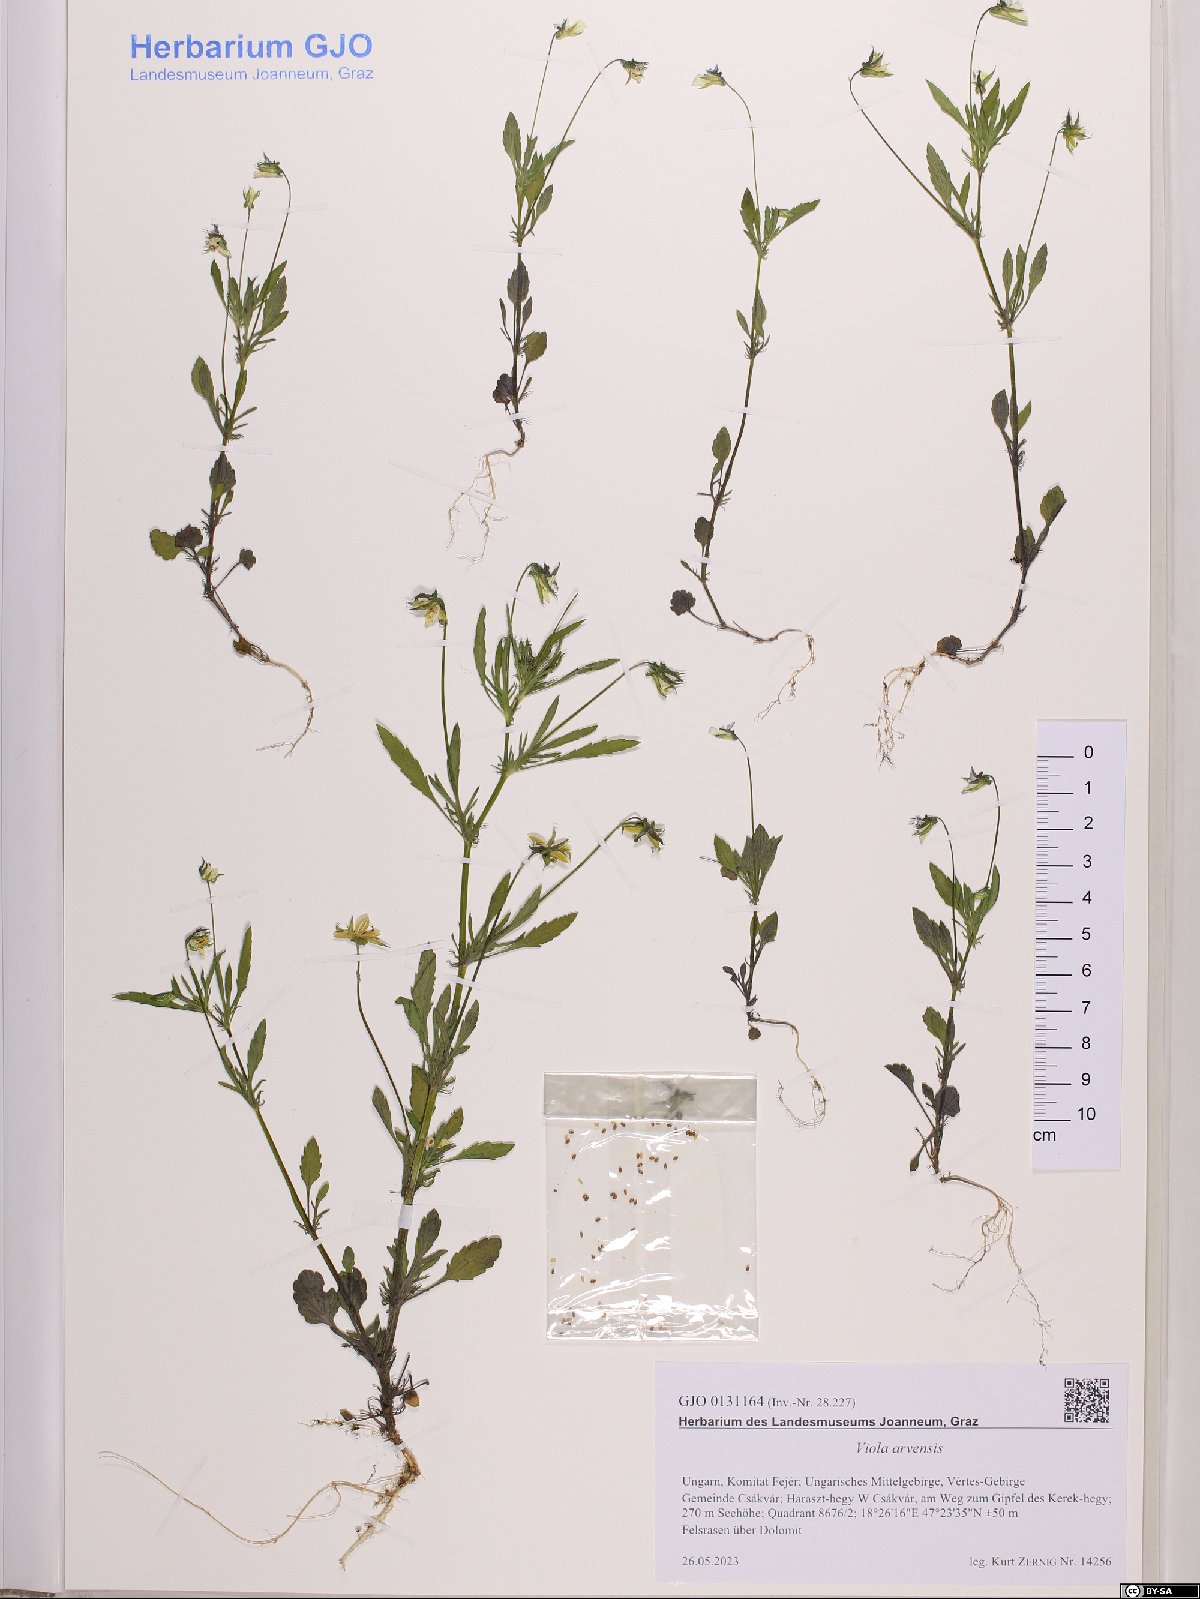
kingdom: Plantae
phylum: Tracheophyta
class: Magnoliopsida
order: Malpighiales
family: Violaceae
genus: Viola
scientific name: Viola arvensis
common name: Field pansy
